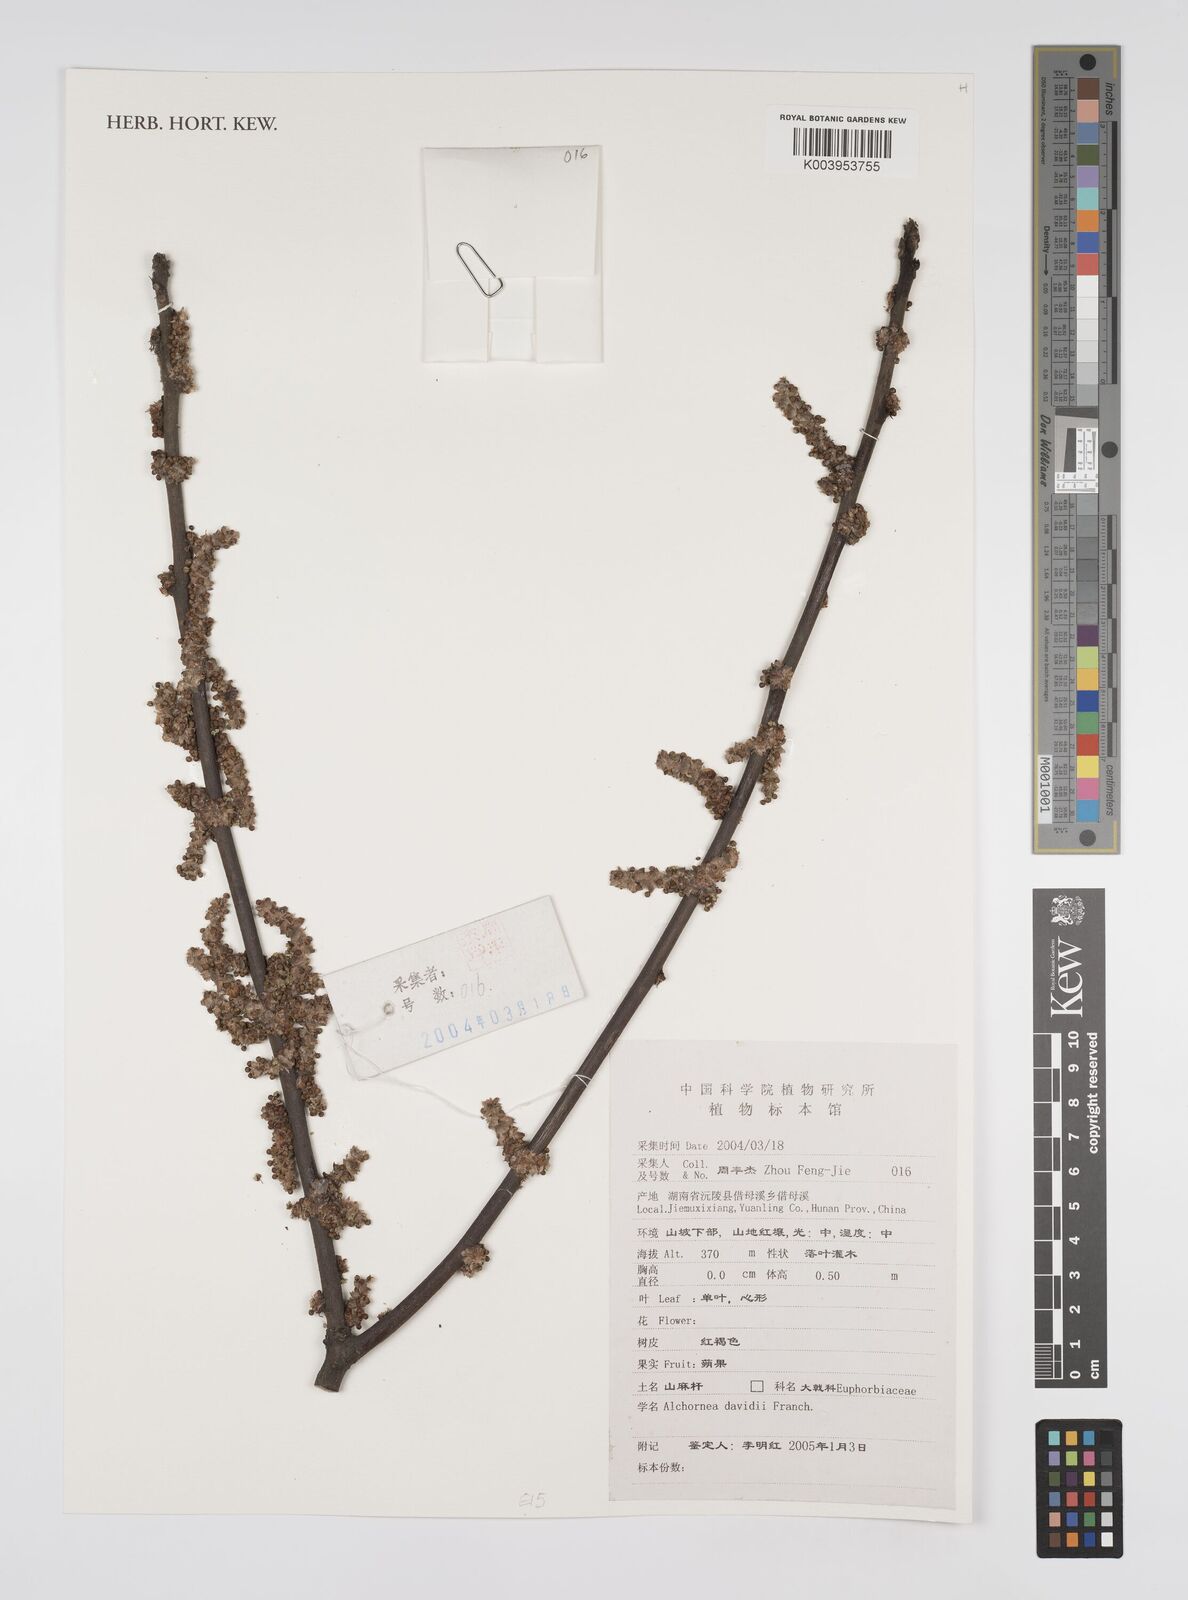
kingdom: Plantae
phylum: Tracheophyta
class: Magnoliopsida
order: Malpighiales
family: Euphorbiaceae
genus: Alchornea
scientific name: Alchornea davidii
